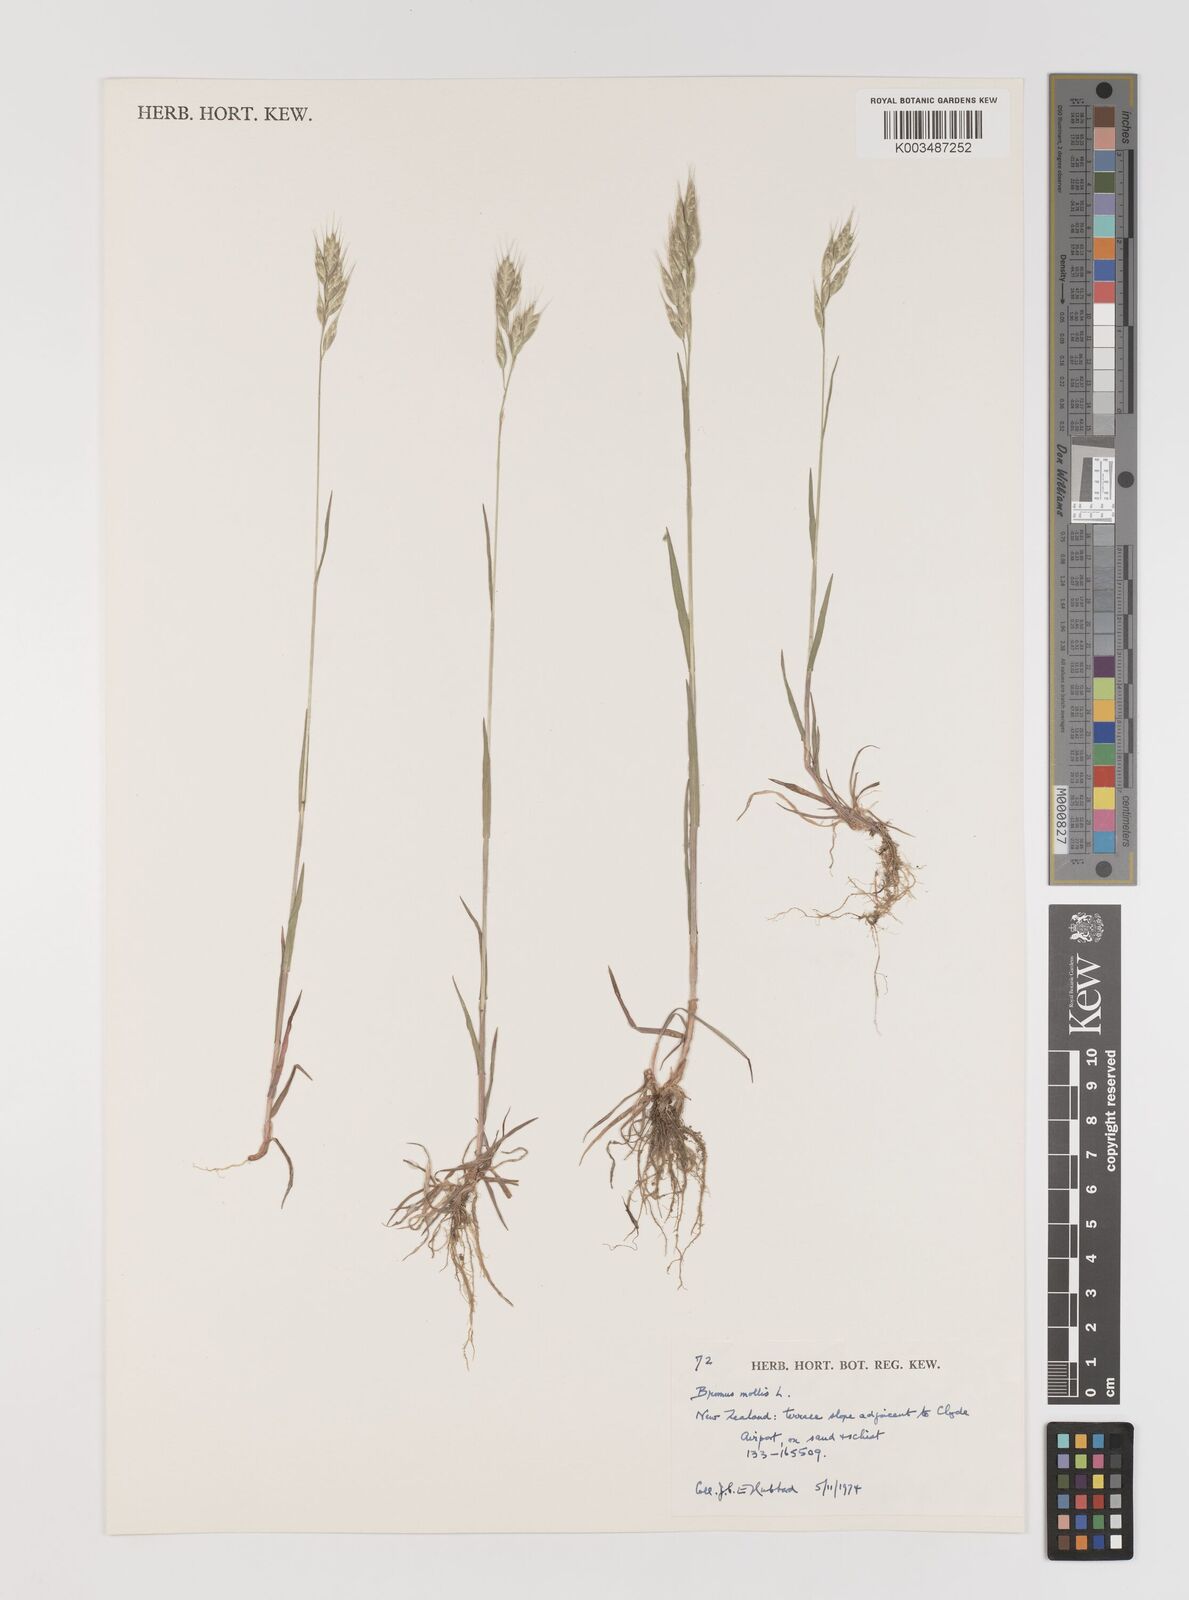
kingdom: Plantae
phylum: Tracheophyta
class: Liliopsida
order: Poales
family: Poaceae
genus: Bromus
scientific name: Bromus hordeaceus
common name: Soft brome
